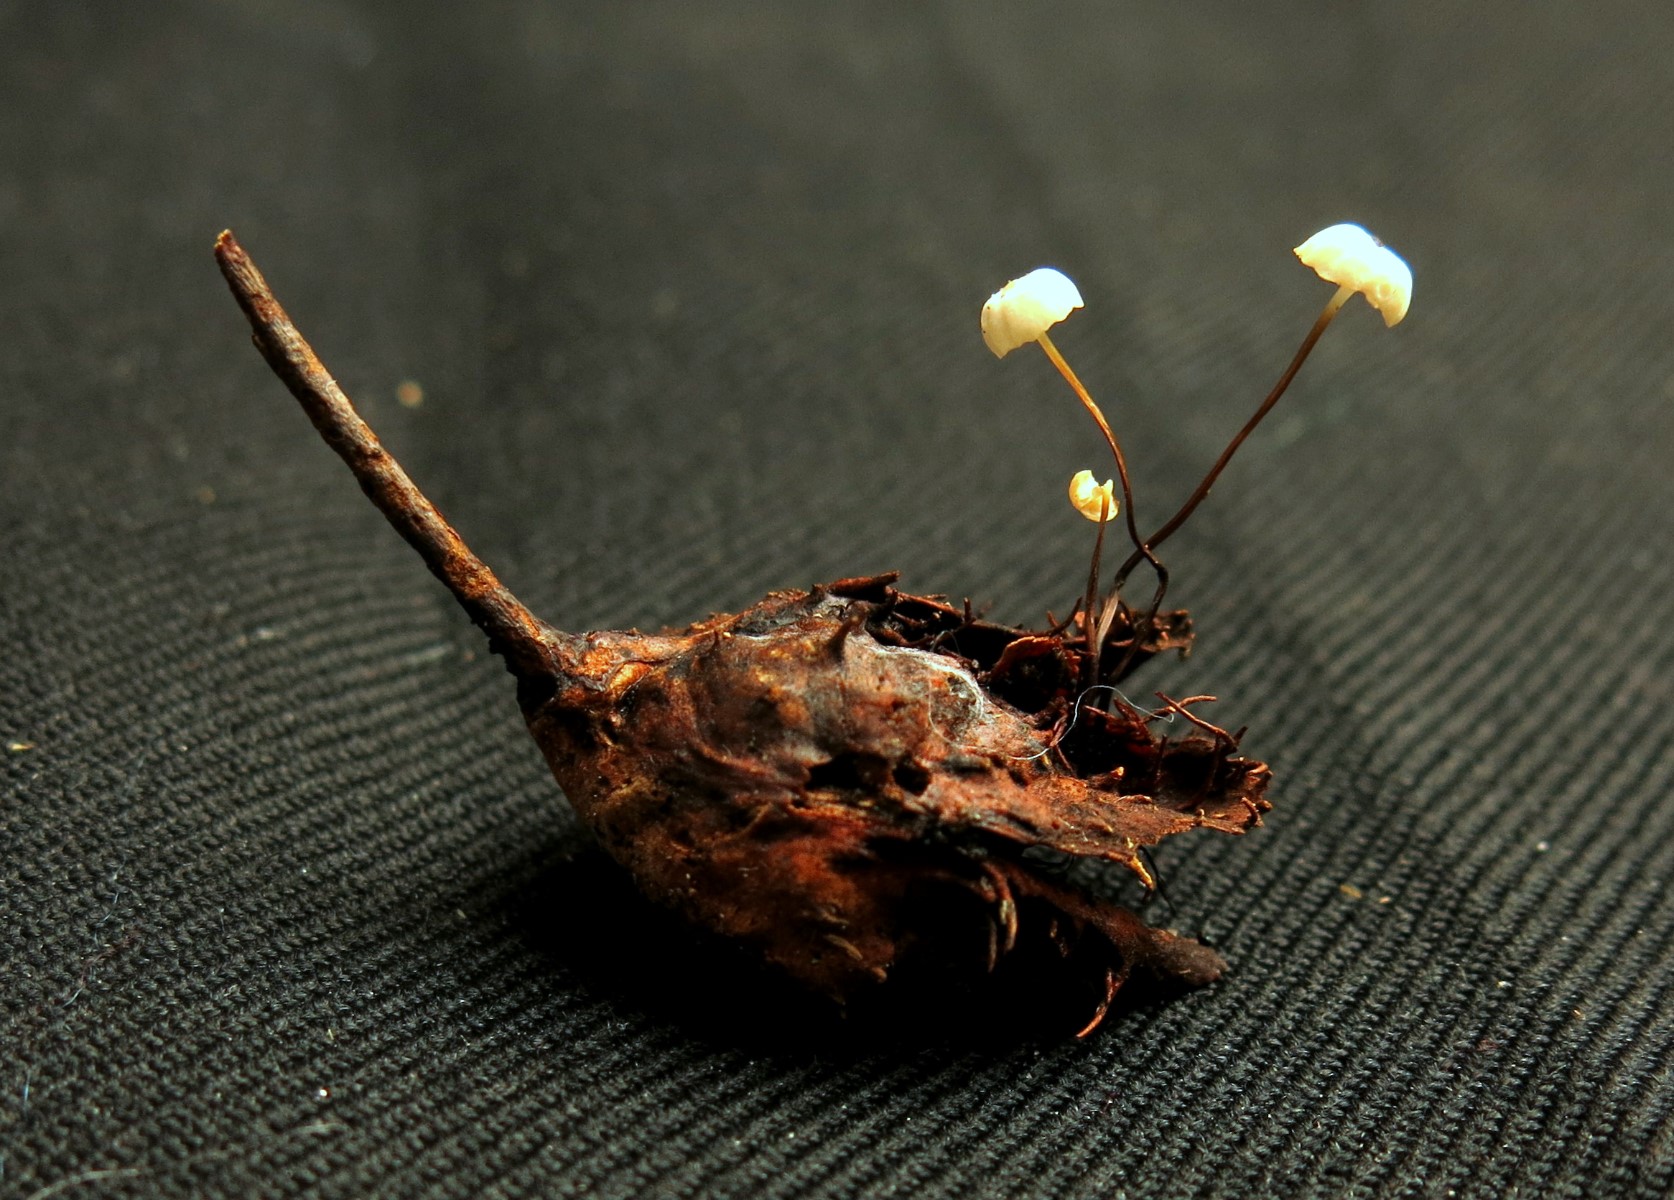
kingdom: Fungi
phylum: Basidiomycota
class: Agaricomycetes
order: Agaricales
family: Marasmiaceae
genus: Marasmius
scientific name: Marasmius rotula
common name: hjul-bruskhat
